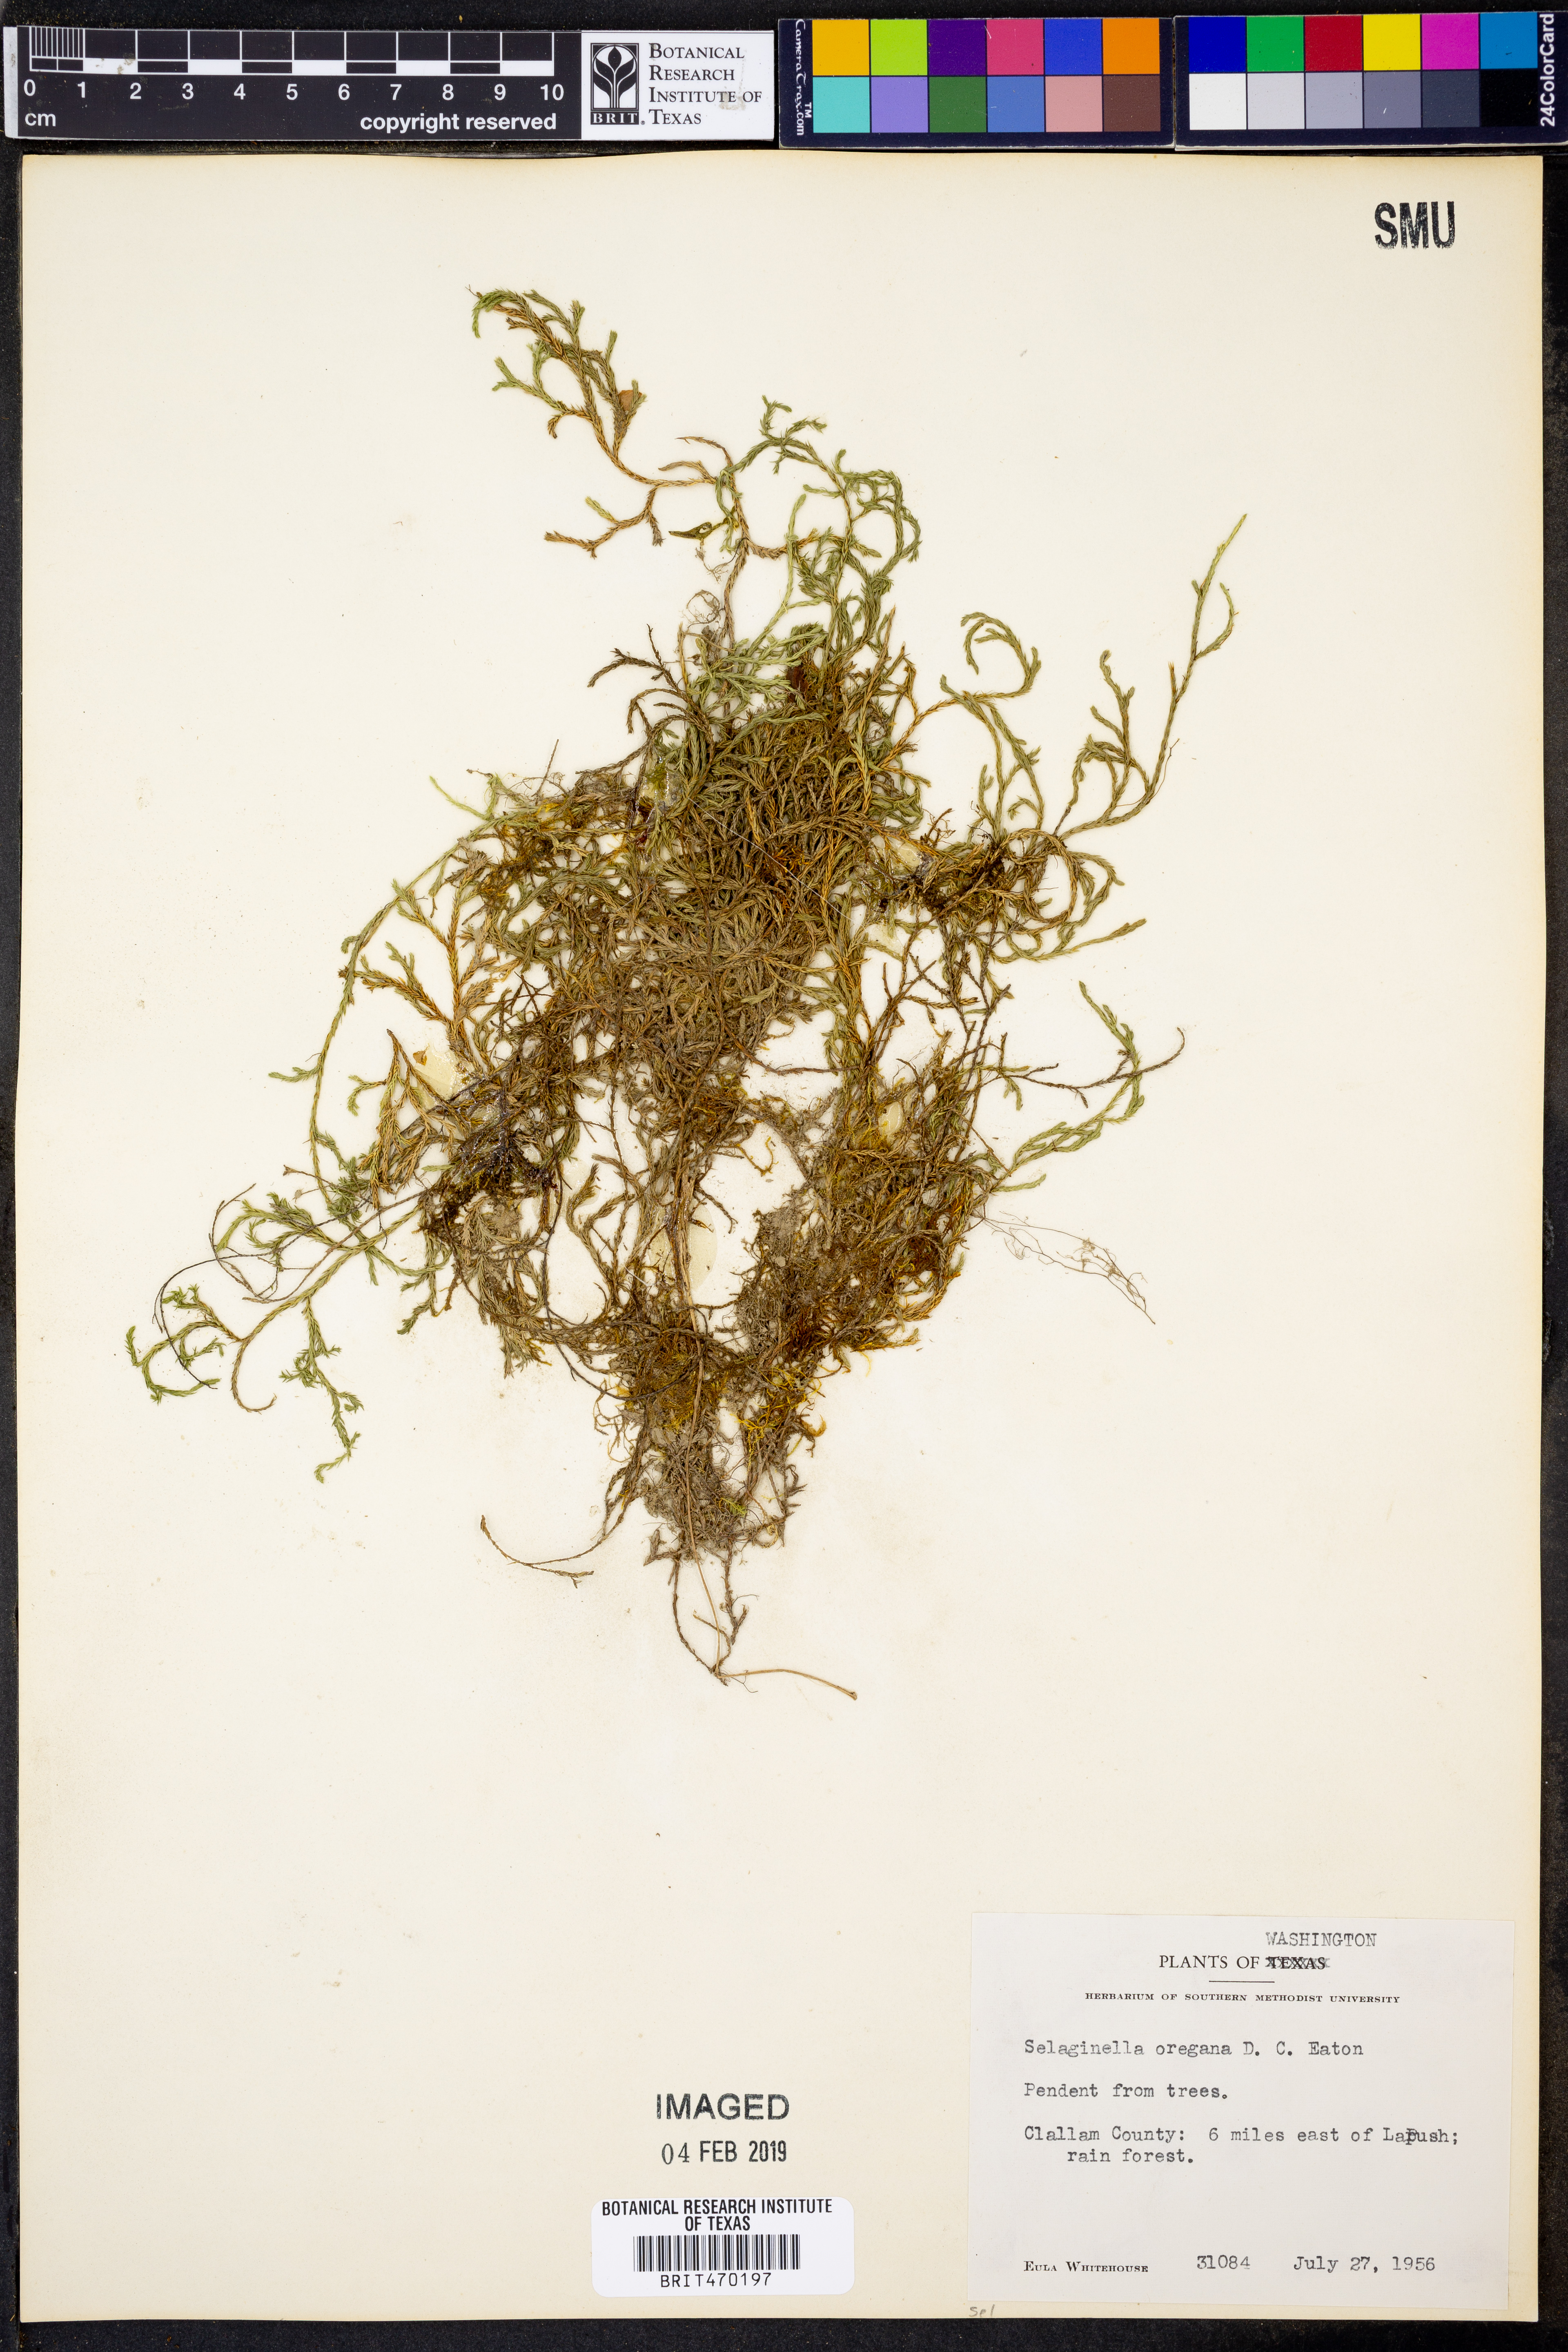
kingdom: Plantae
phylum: Tracheophyta
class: Lycopodiopsida
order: Selaginellales
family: Selaginellaceae
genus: Selaginella
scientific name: Selaginella oregana
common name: Oregon selaginella
